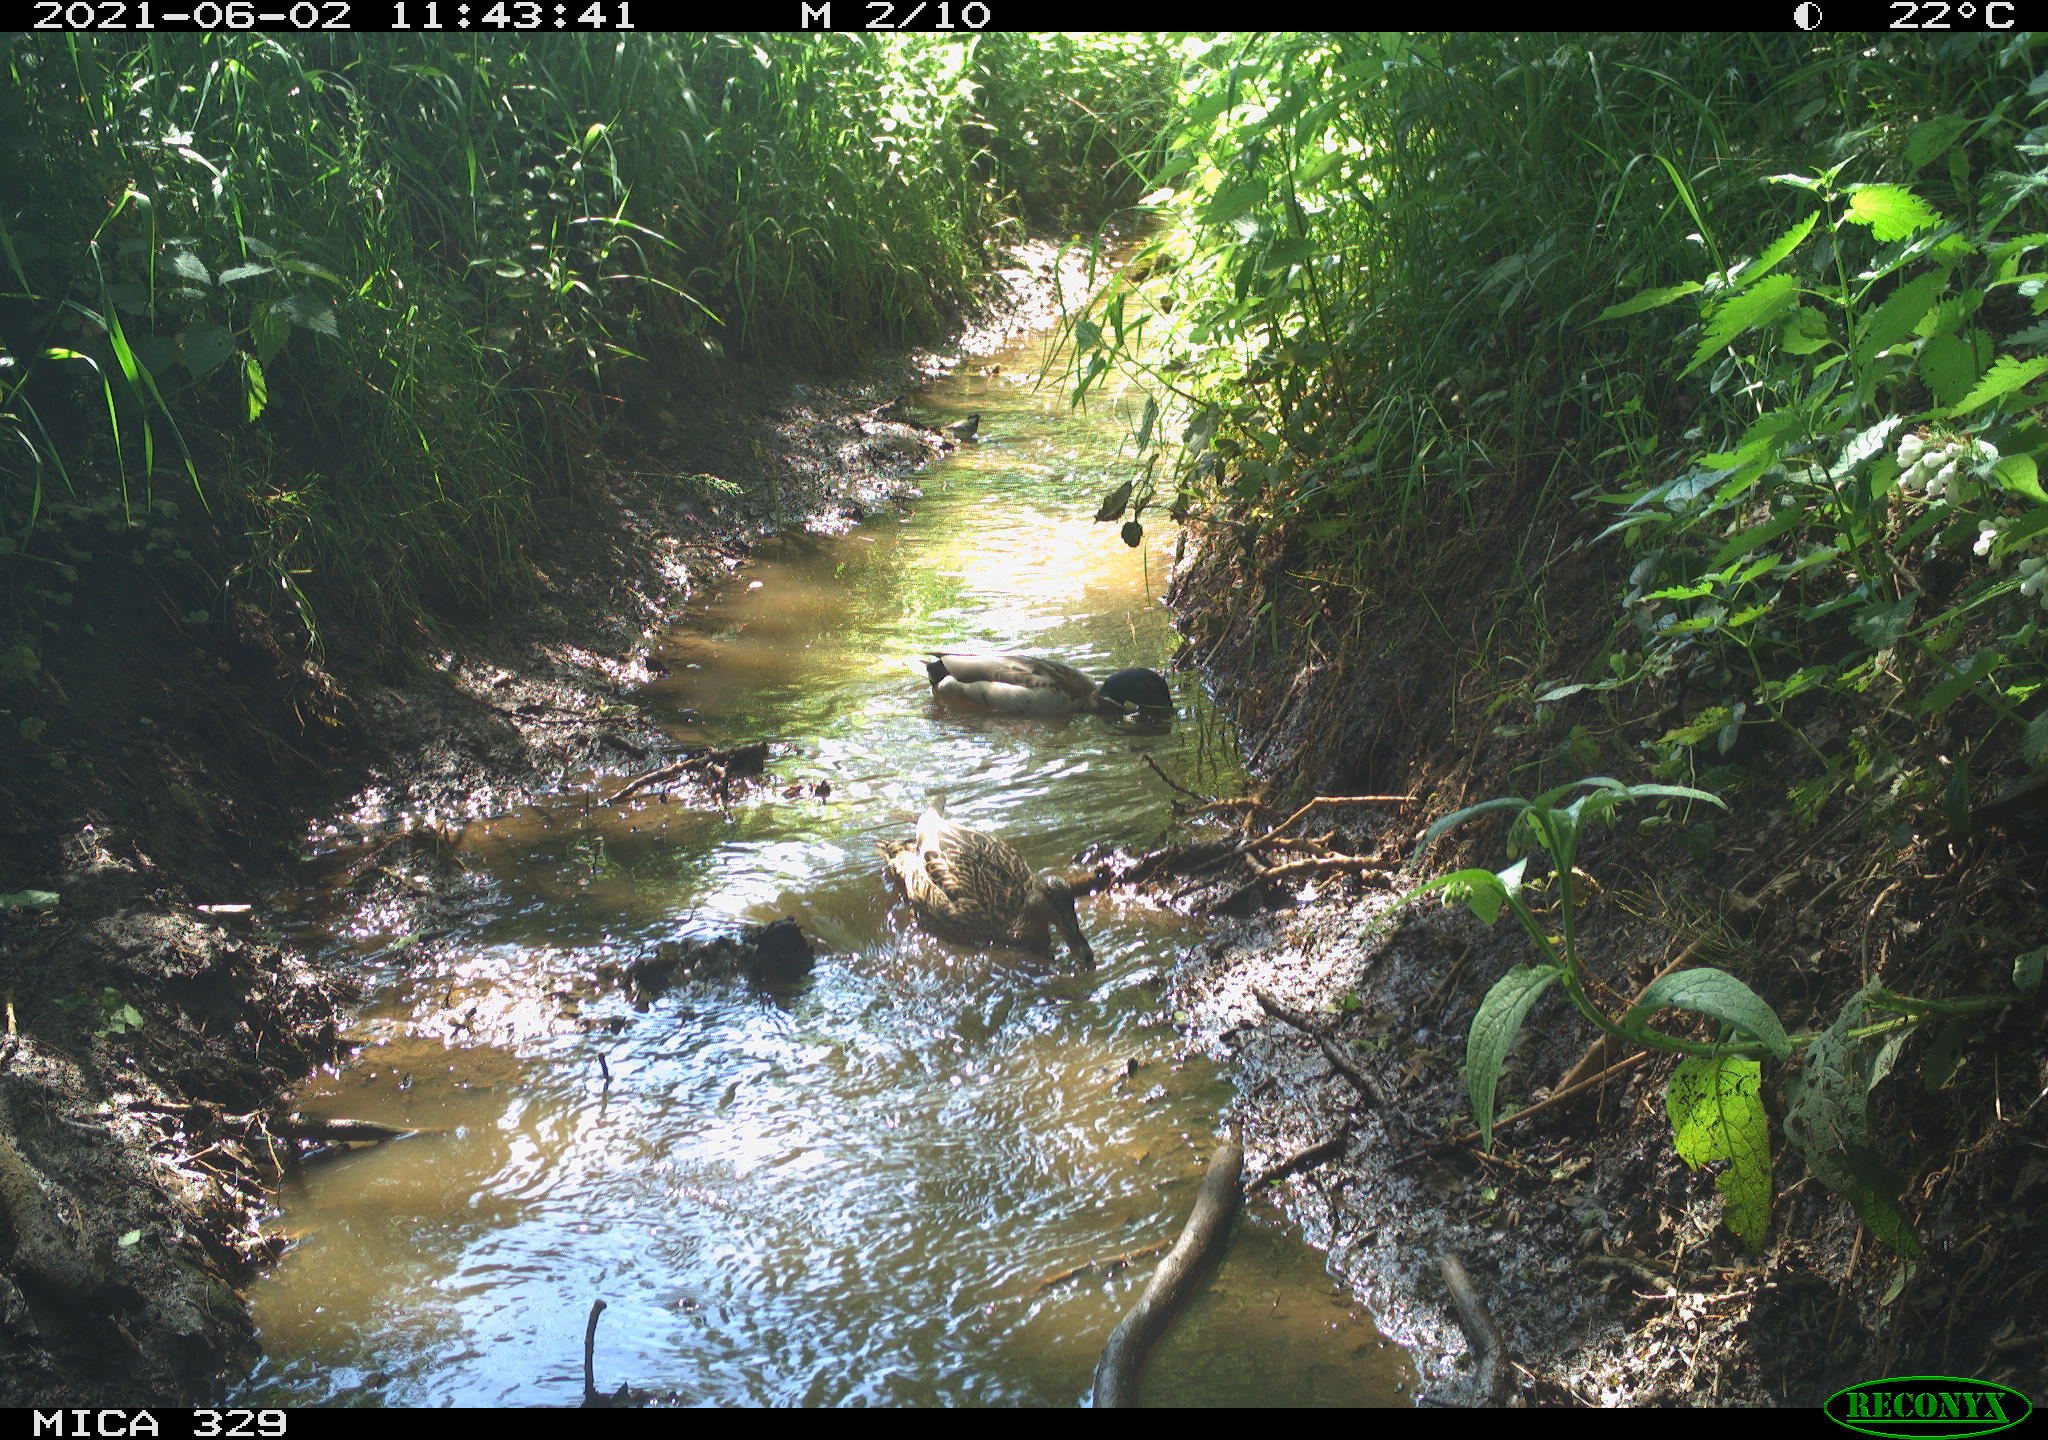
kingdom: Animalia
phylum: Chordata
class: Aves
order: Anseriformes
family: Anatidae
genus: Anas
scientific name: Anas platyrhynchos
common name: Mallard
